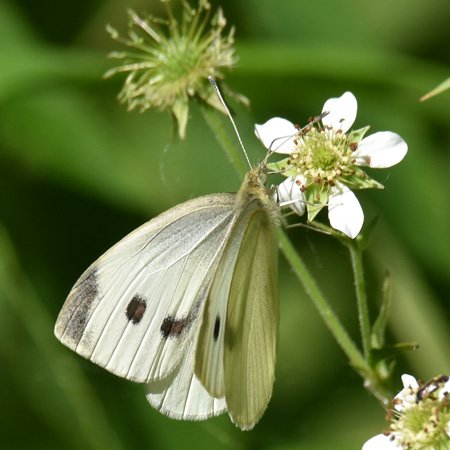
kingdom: Animalia
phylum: Arthropoda
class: Insecta
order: Lepidoptera
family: Pieridae
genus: Pieris
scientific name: Pieris rapae
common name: Cabbage White
